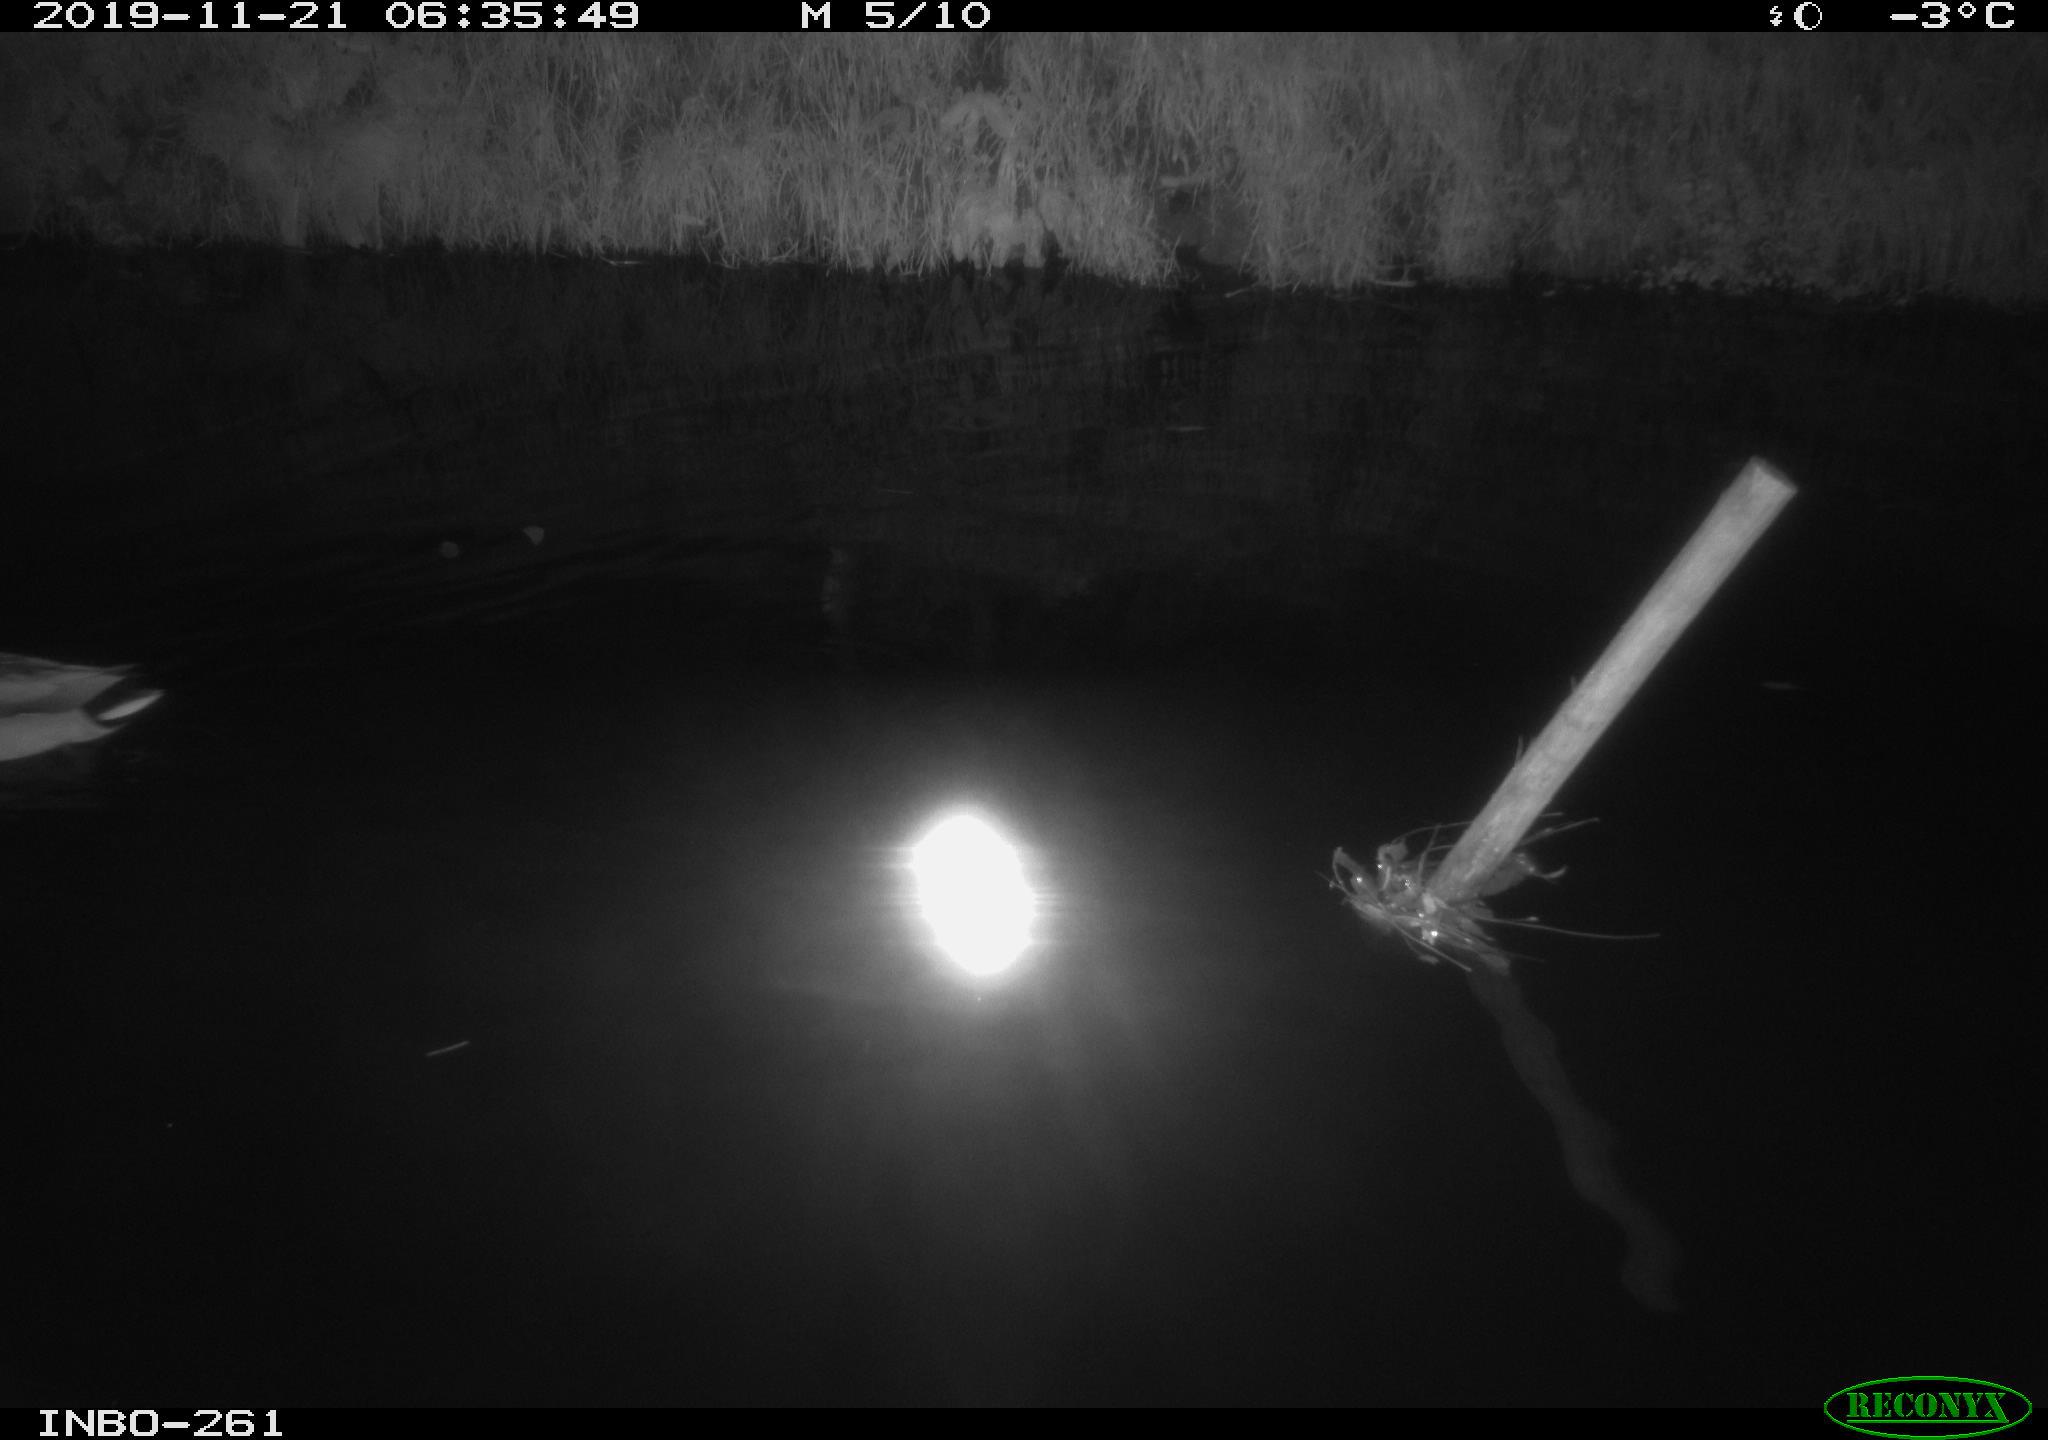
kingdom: Animalia
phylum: Chordata
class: Aves
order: Anseriformes
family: Anatidae
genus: Anas
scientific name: Anas platyrhynchos
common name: Mallard
